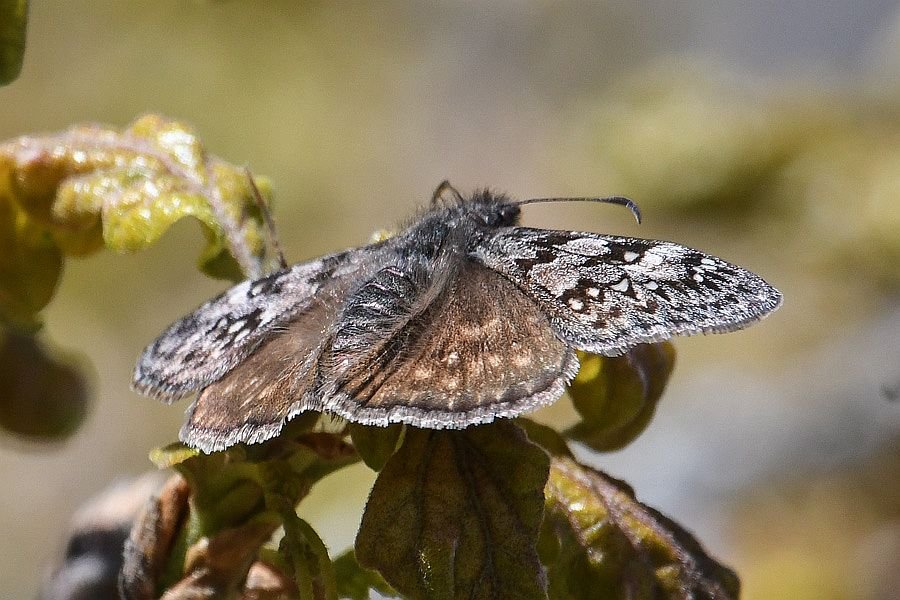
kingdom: Animalia
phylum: Arthropoda
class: Insecta
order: Lepidoptera
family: Hesperiidae
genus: Erynnis
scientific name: Erynnis propertius
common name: Propertius Duskywing
